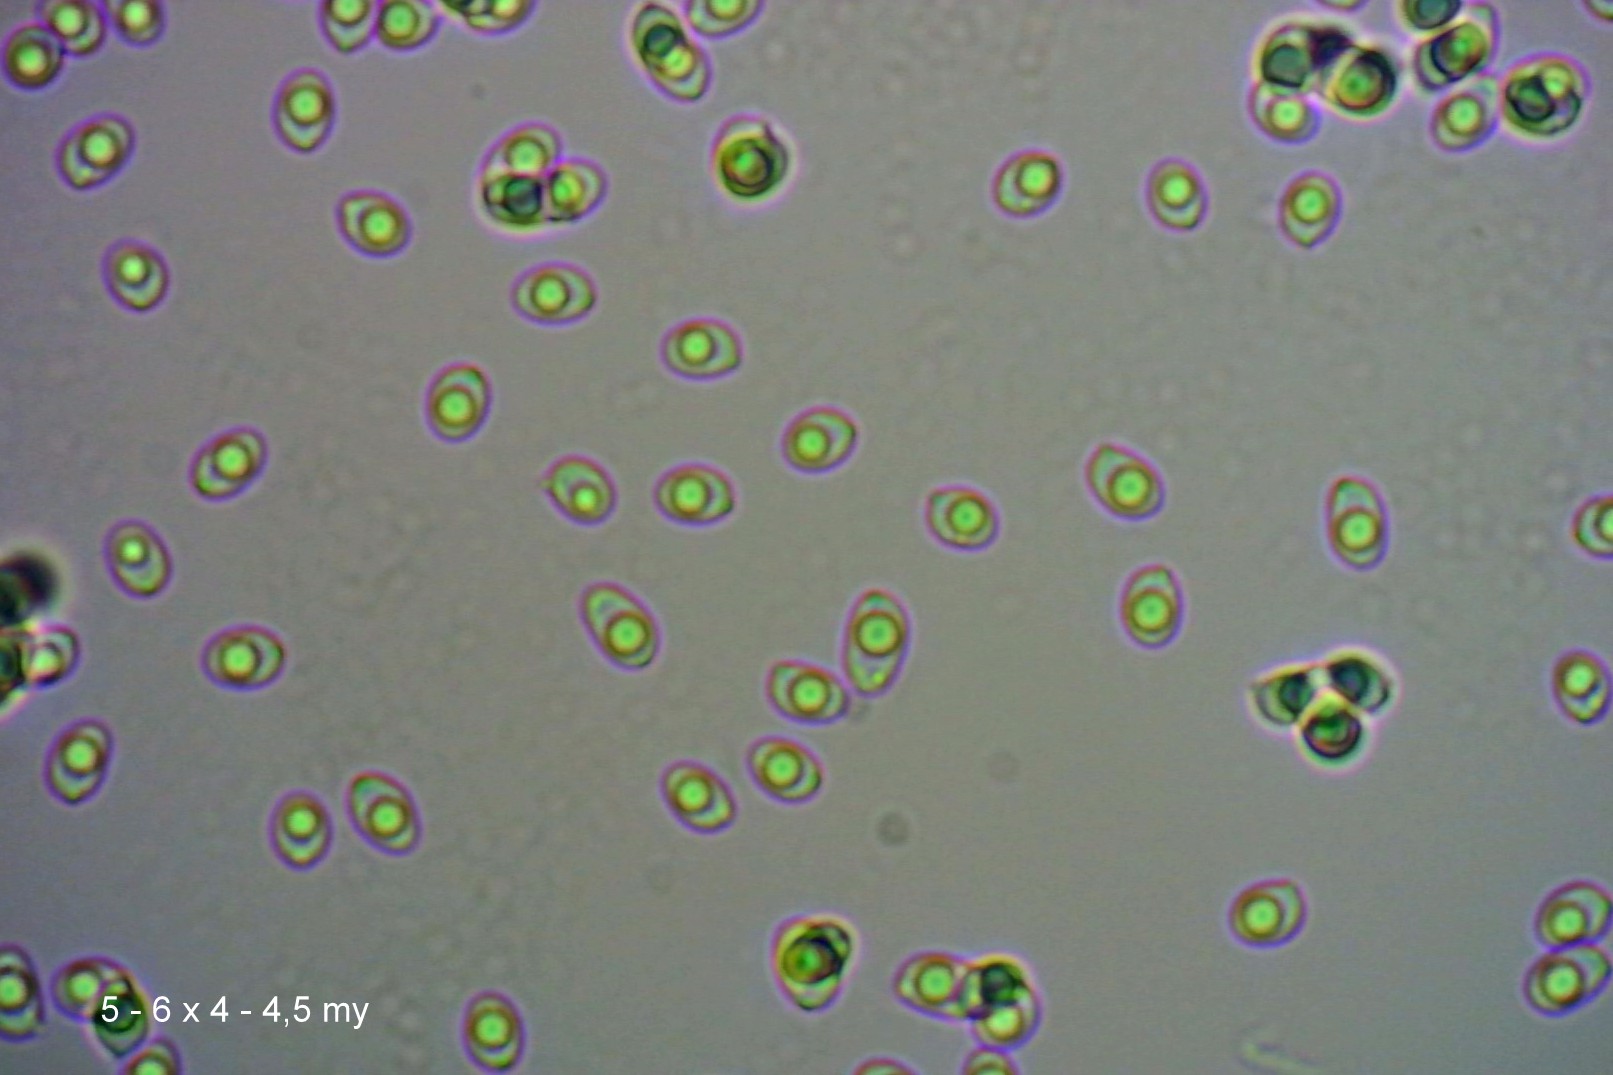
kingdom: Fungi
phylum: Basidiomycota
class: Agaricomycetes
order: Agaricales
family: Tricholomataceae
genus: Dermoloma
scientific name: Dermoloma cuneifolium
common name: eng-nonnehat
